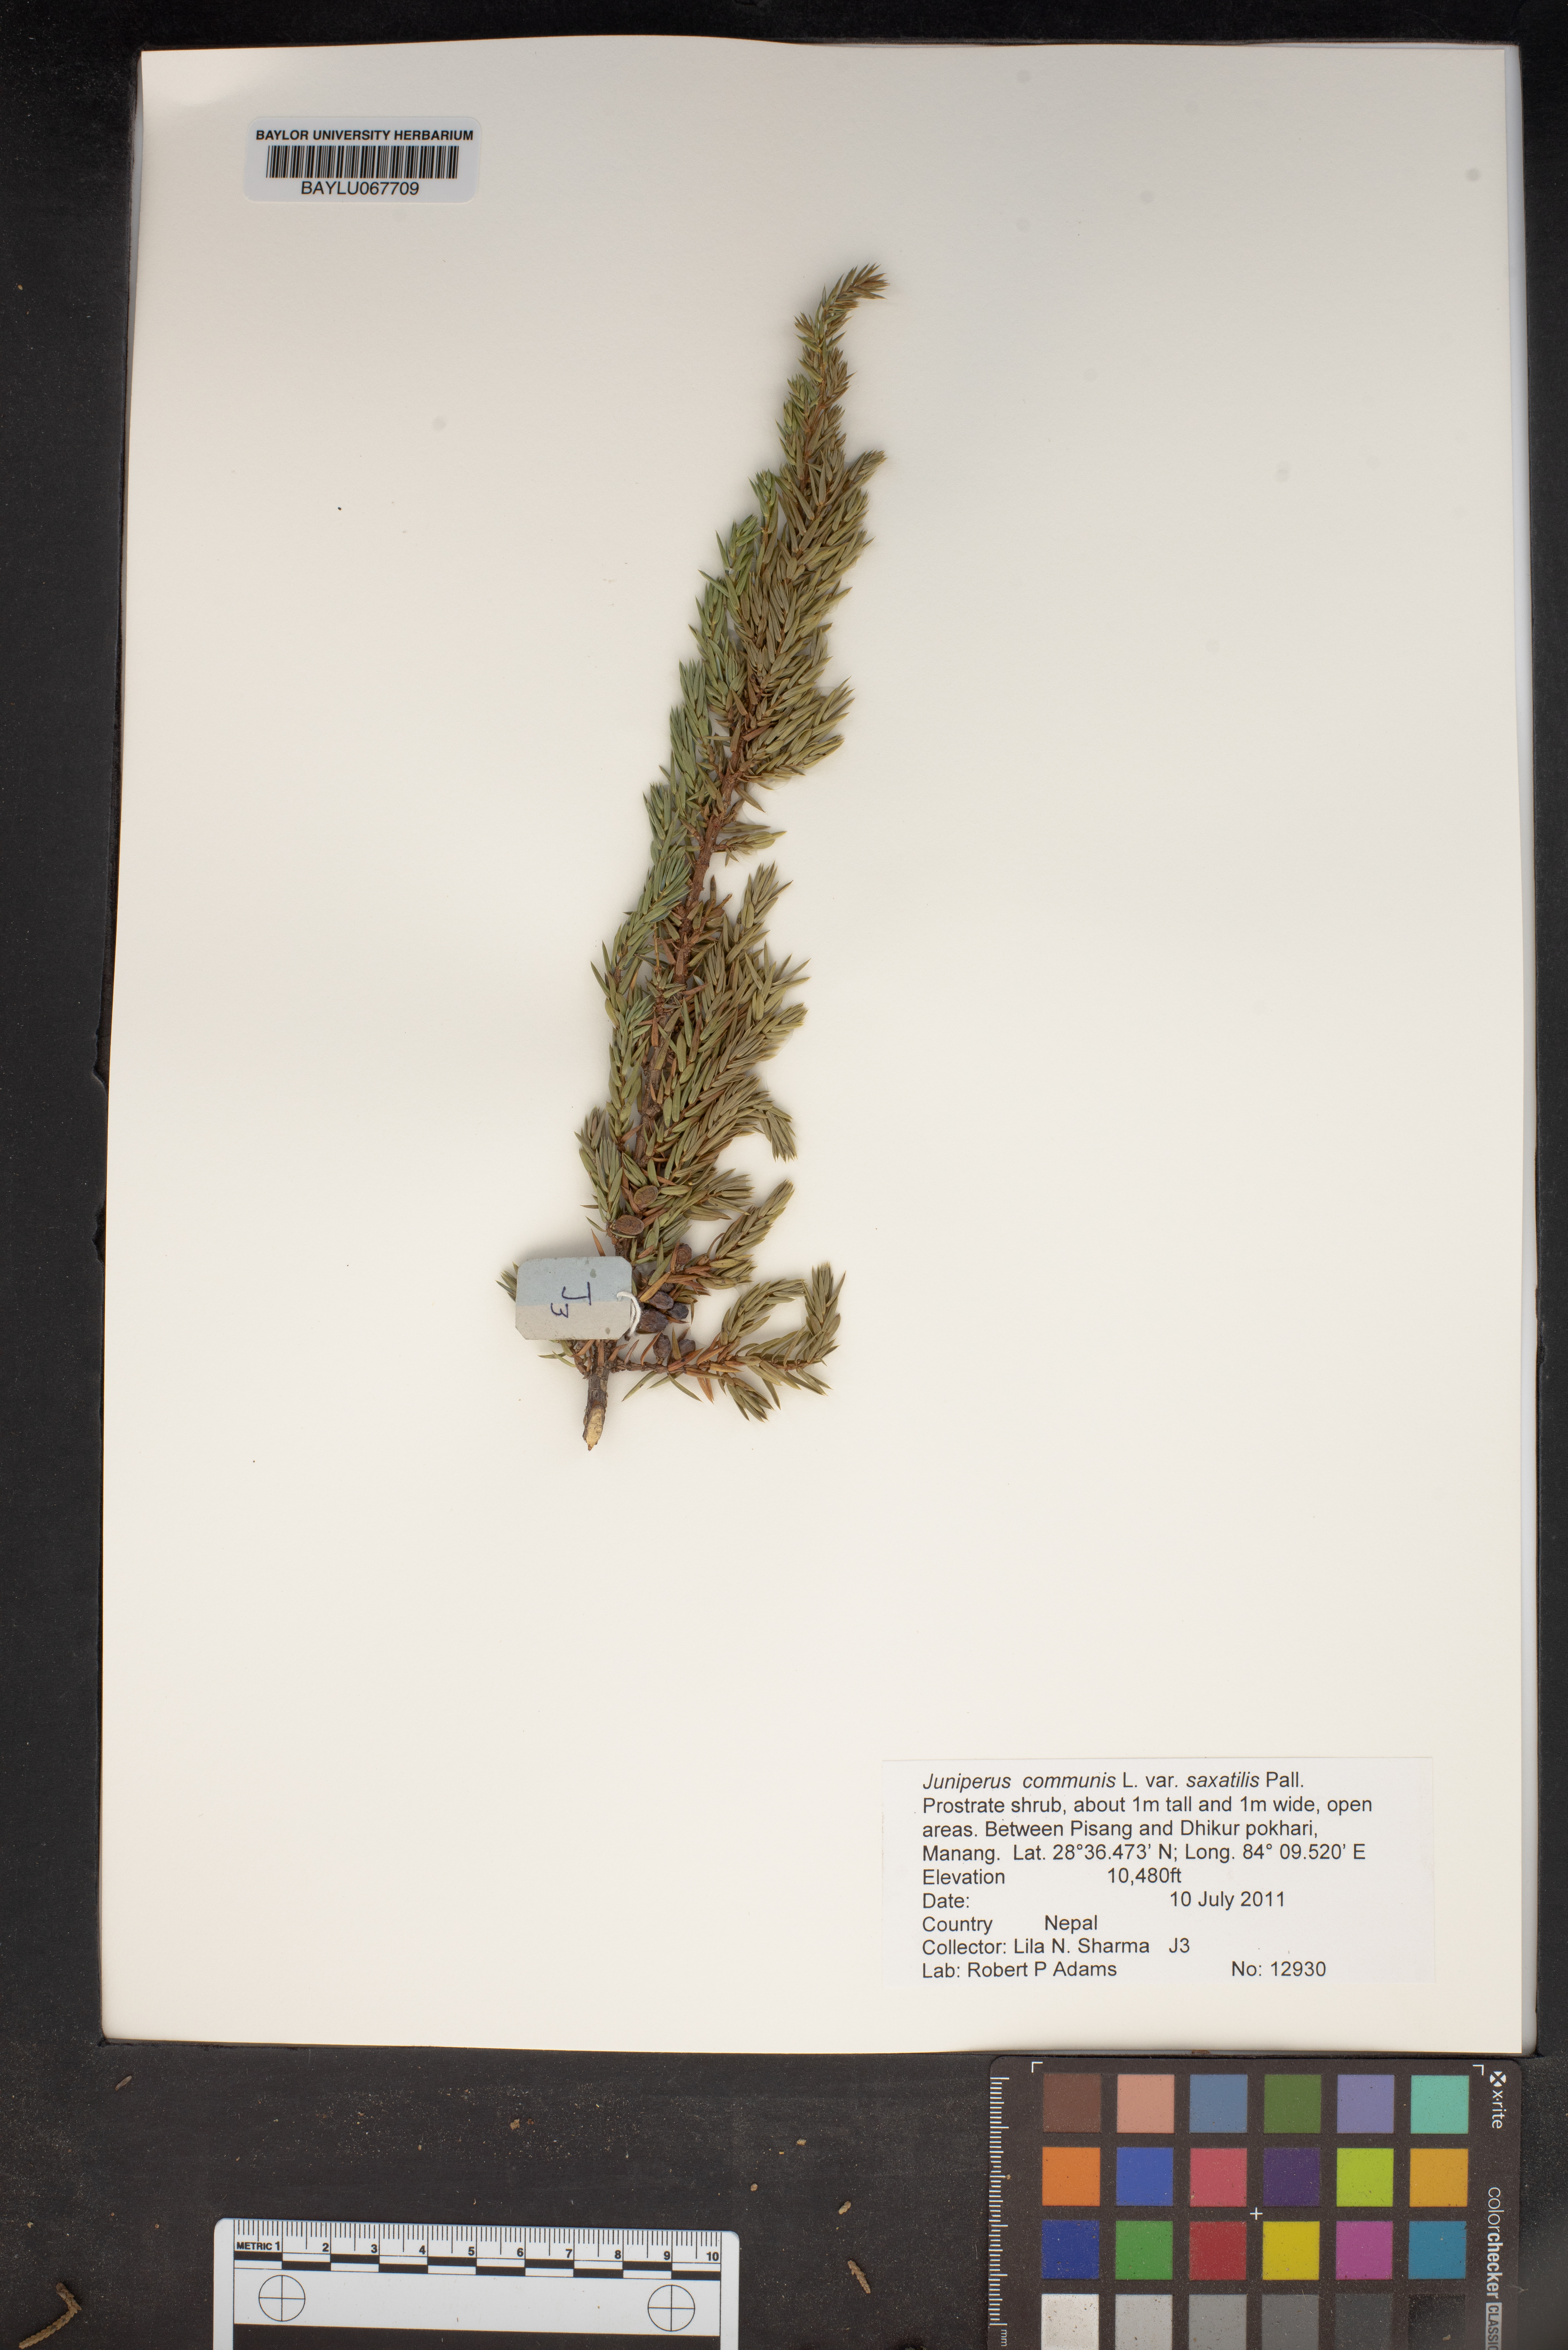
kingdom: Plantae
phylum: Tracheophyta
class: Pinopsida
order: Pinales
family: Cupressaceae
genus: Juniperus
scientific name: Juniperus communis
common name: Common juniper
